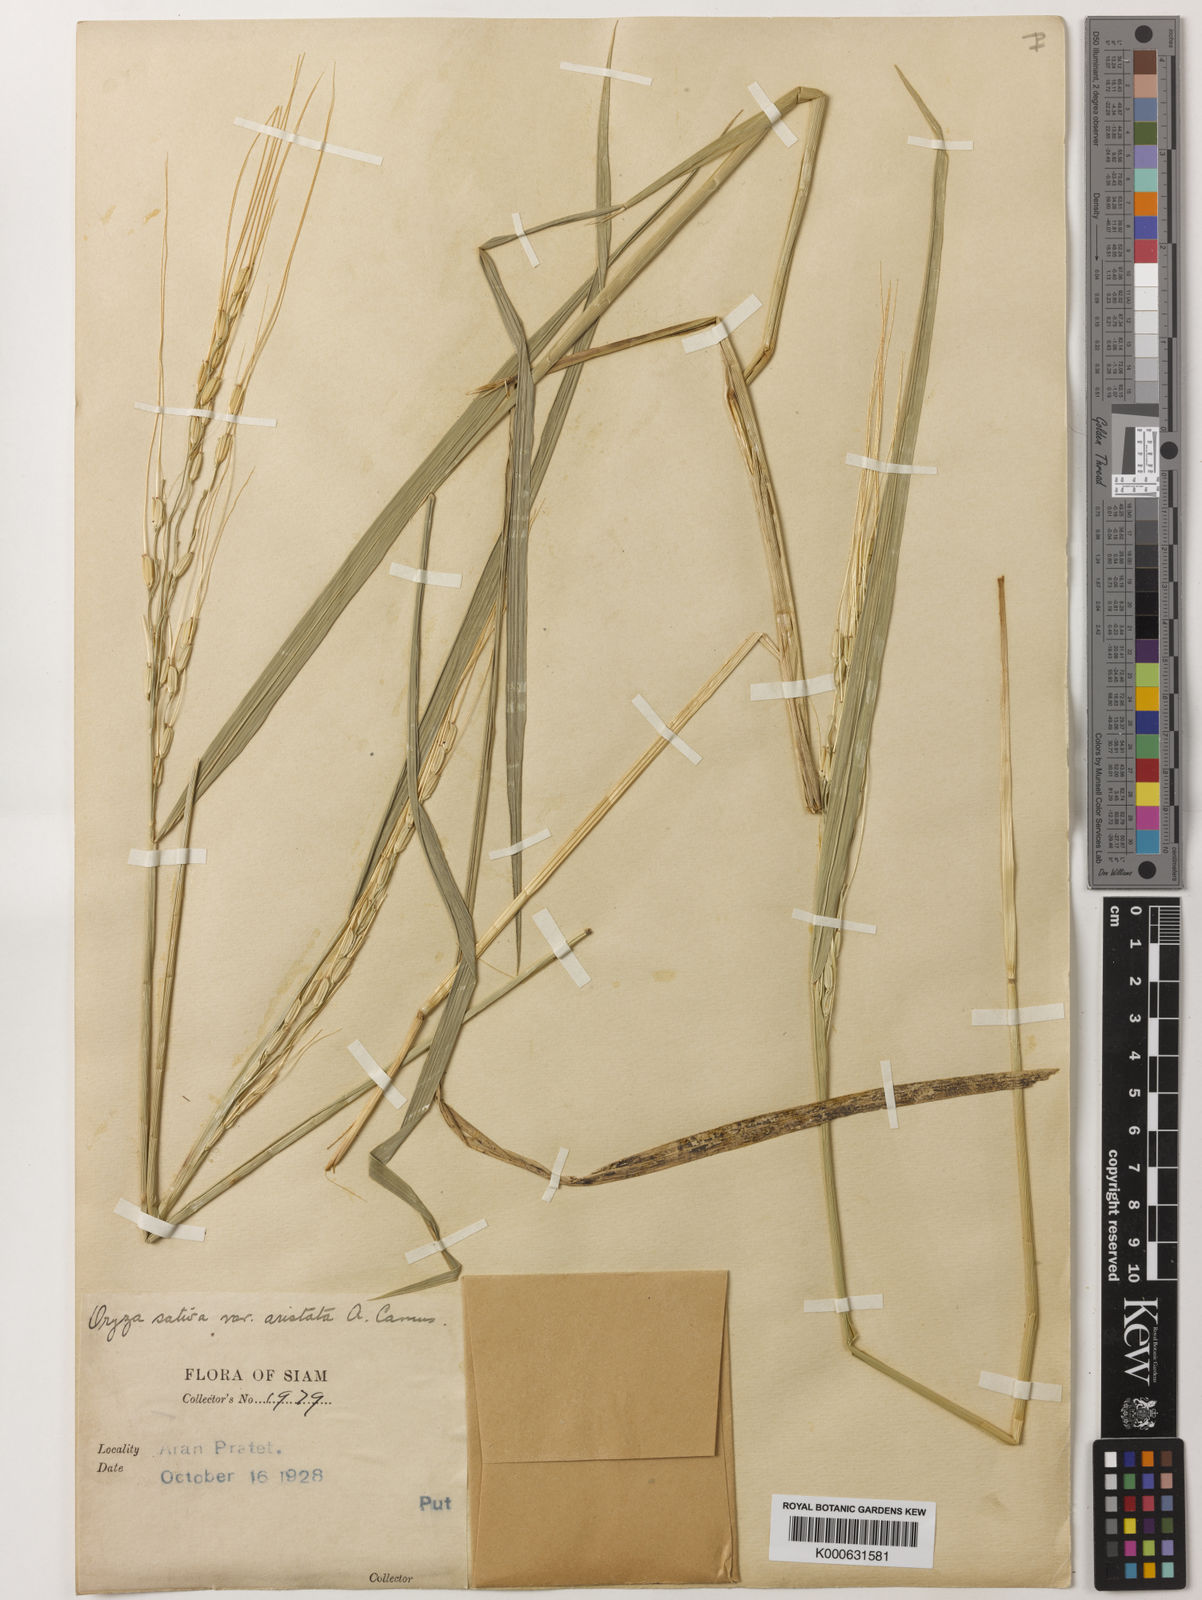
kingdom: Plantae
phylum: Tracheophyta
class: Liliopsida
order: Poales
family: Poaceae
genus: Oryza
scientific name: Oryza sativa
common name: Rice
